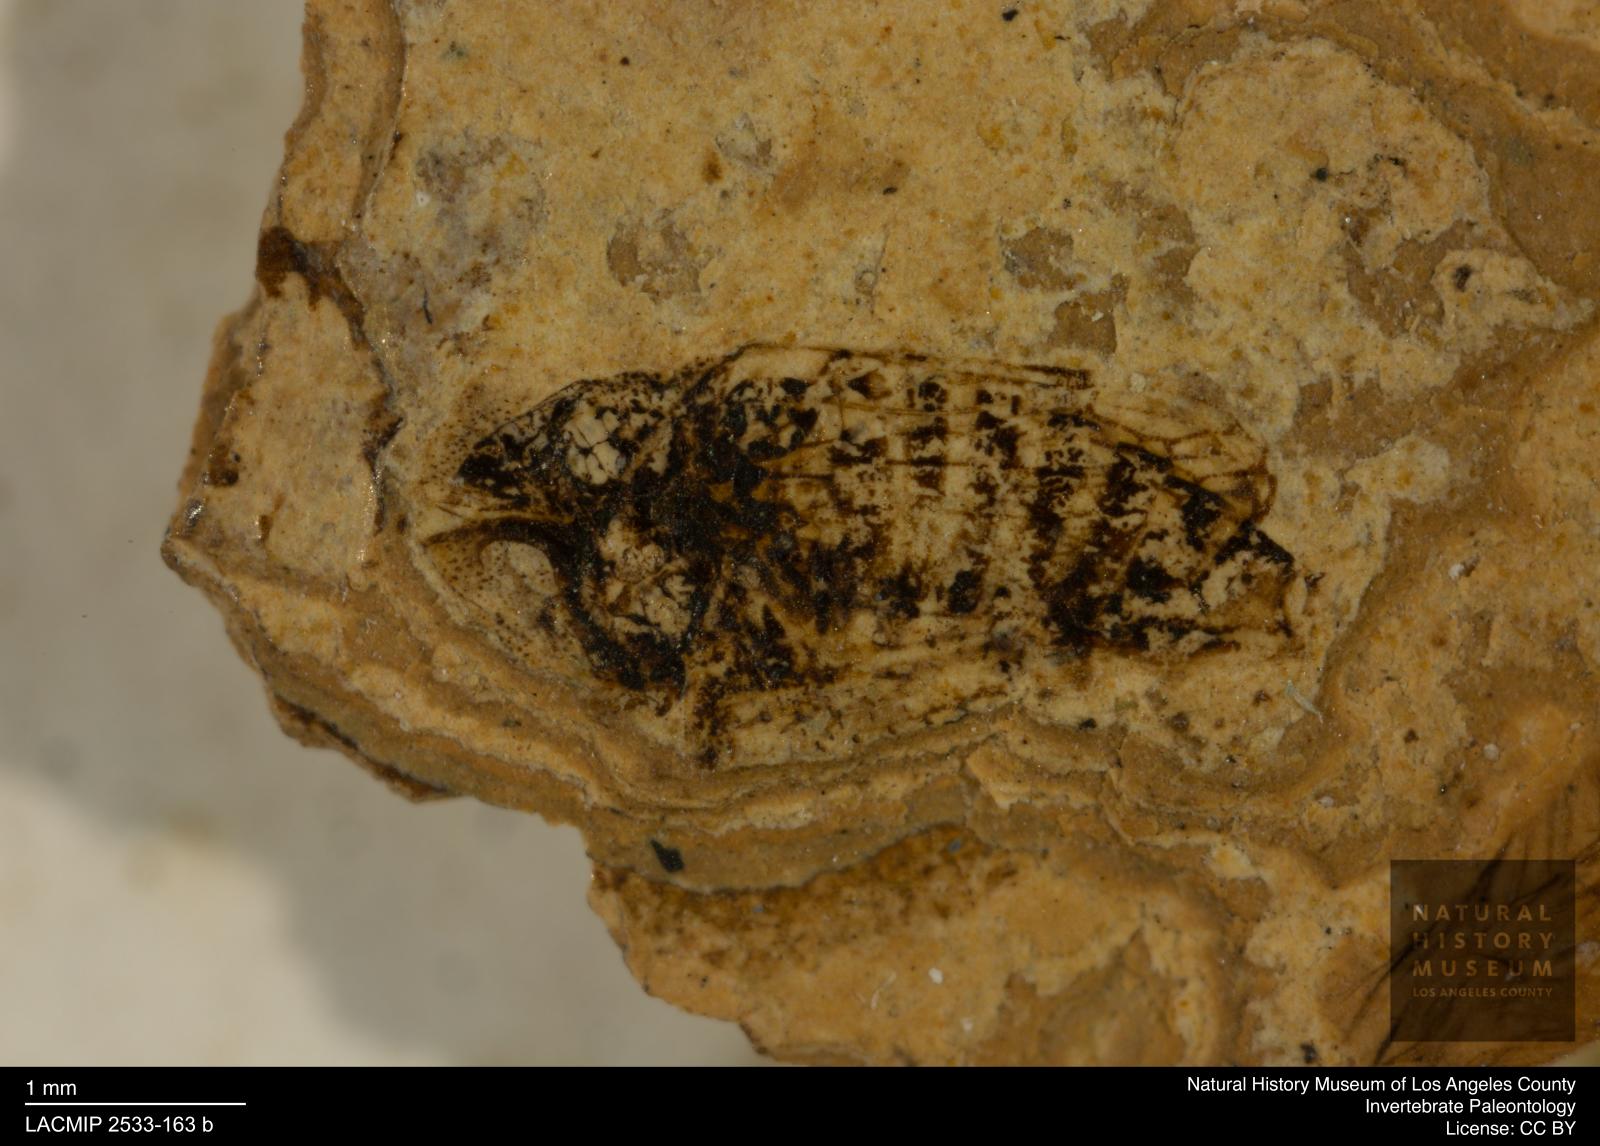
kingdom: Animalia
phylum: Arthropoda
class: Insecta
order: Hemiptera
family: Cicadellidae
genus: Deltocephalus
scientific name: Deltocephalus maculosus
